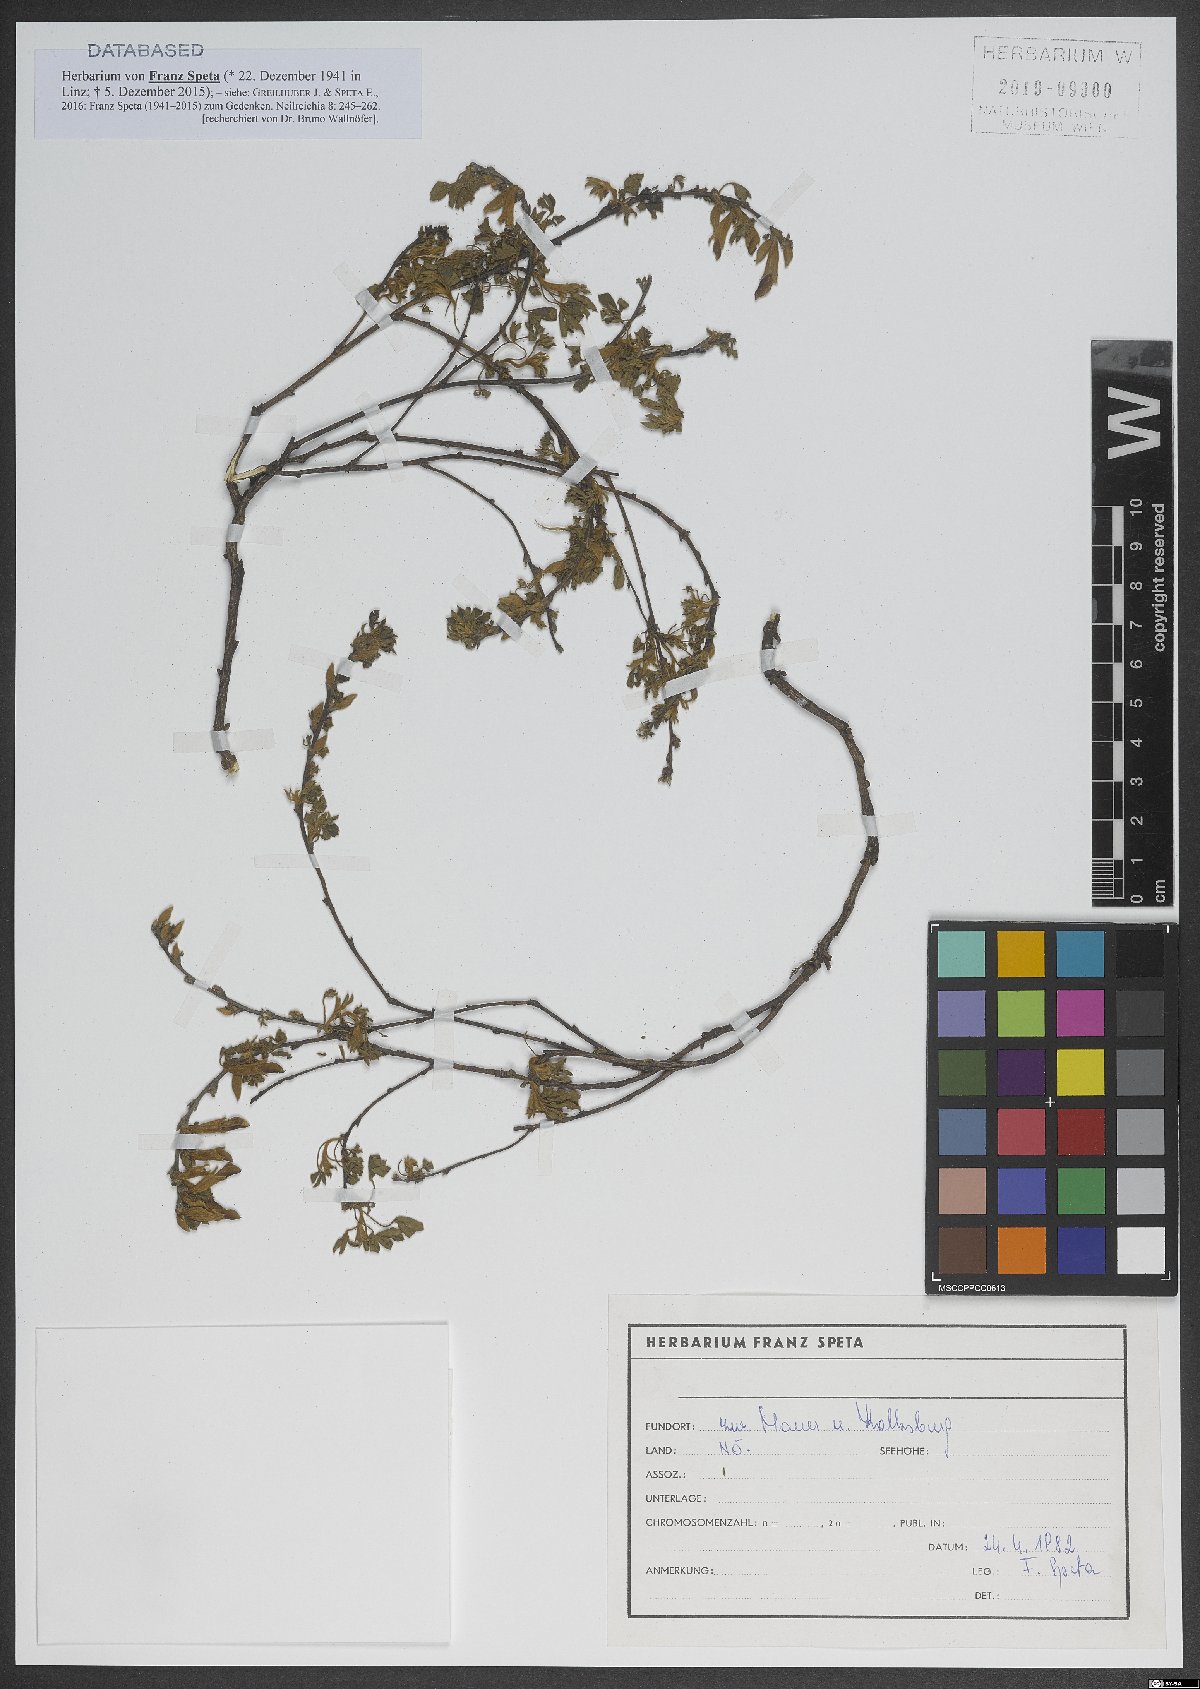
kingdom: Plantae
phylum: Tracheophyta
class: Magnoliopsida
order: Fabales
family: Fabaceae
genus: Chamaecytisus
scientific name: Chamaecytisus ratisbonensis
